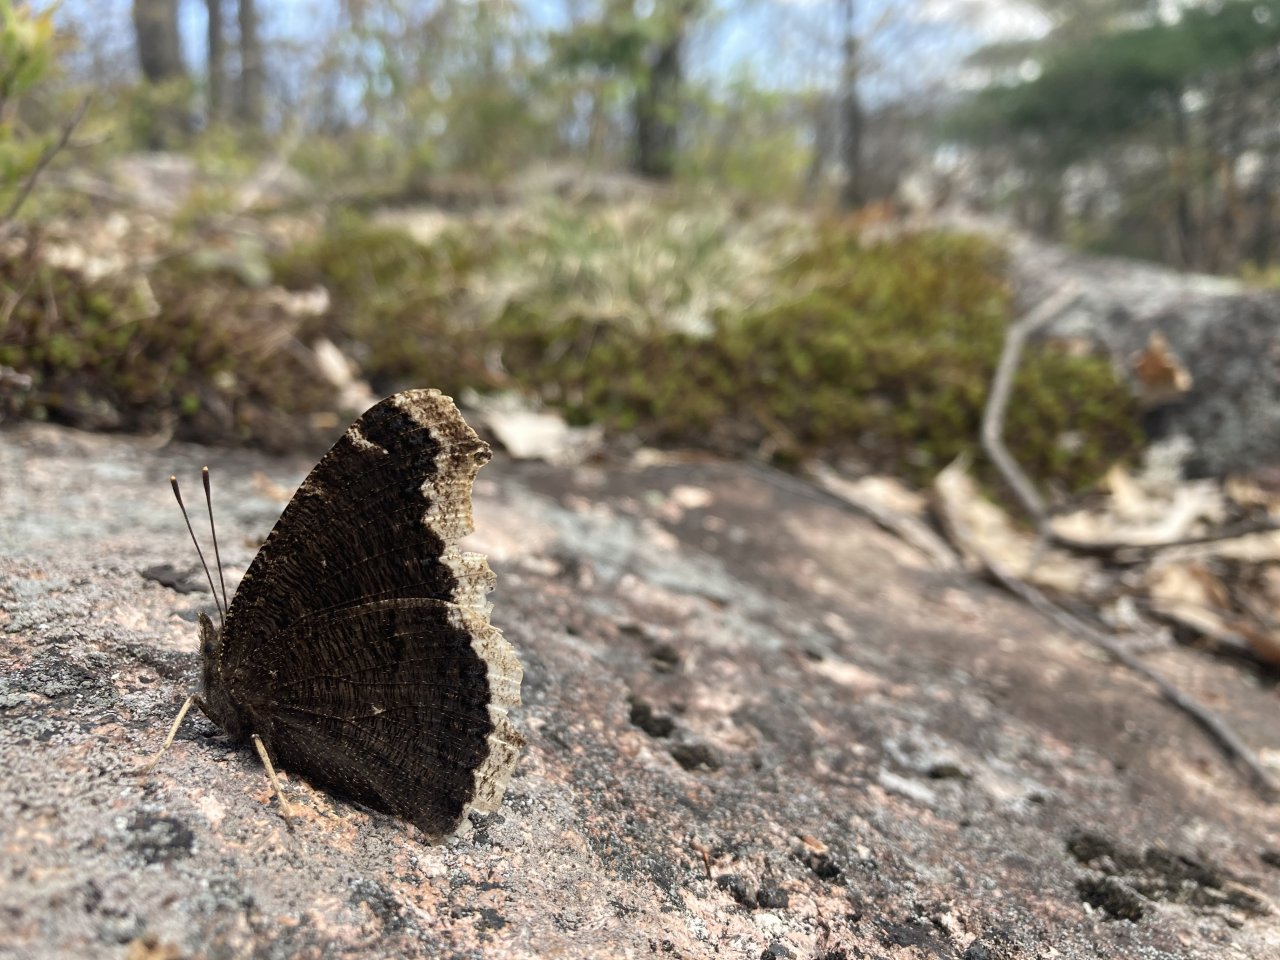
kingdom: Animalia
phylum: Arthropoda
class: Insecta
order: Lepidoptera
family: Nymphalidae
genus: Nymphalis
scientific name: Nymphalis antiopa
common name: Mourning Cloak
